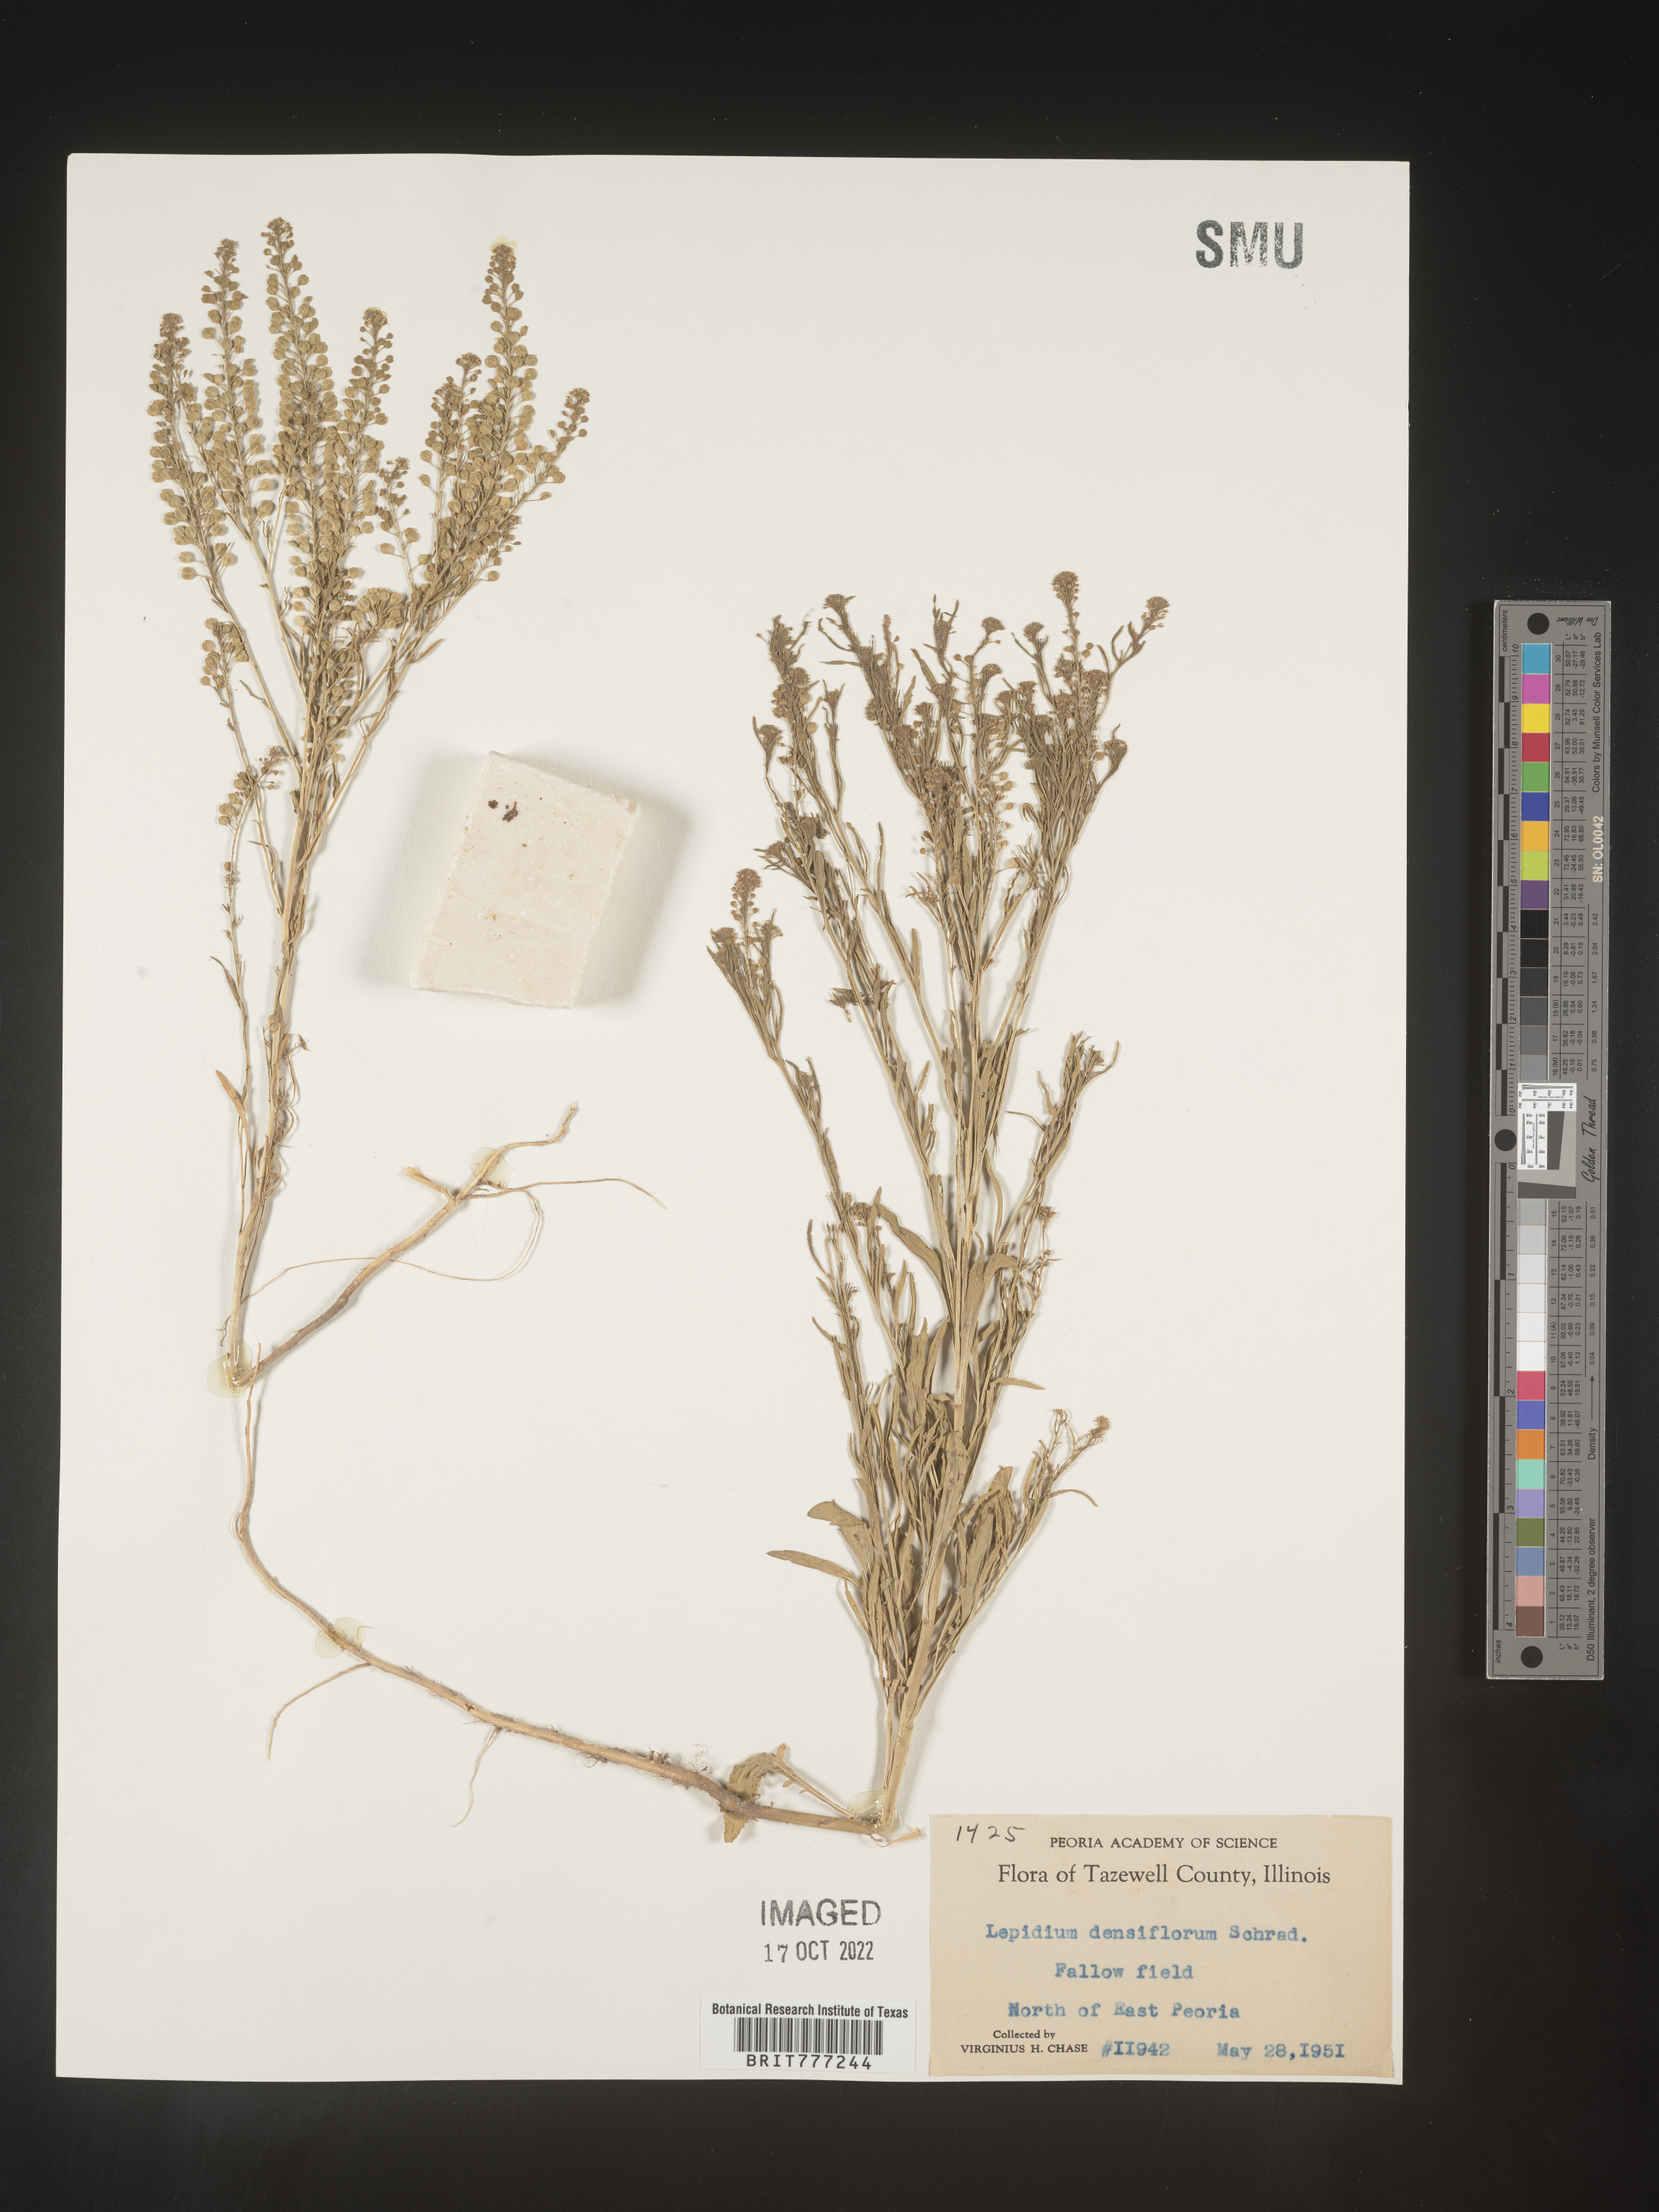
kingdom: Plantae
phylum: Tracheophyta
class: Magnoliopsida
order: Brassicales
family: Brassicaceae
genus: Lepidium
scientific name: Lepidium densiflorum
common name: Miner's pepperwort
